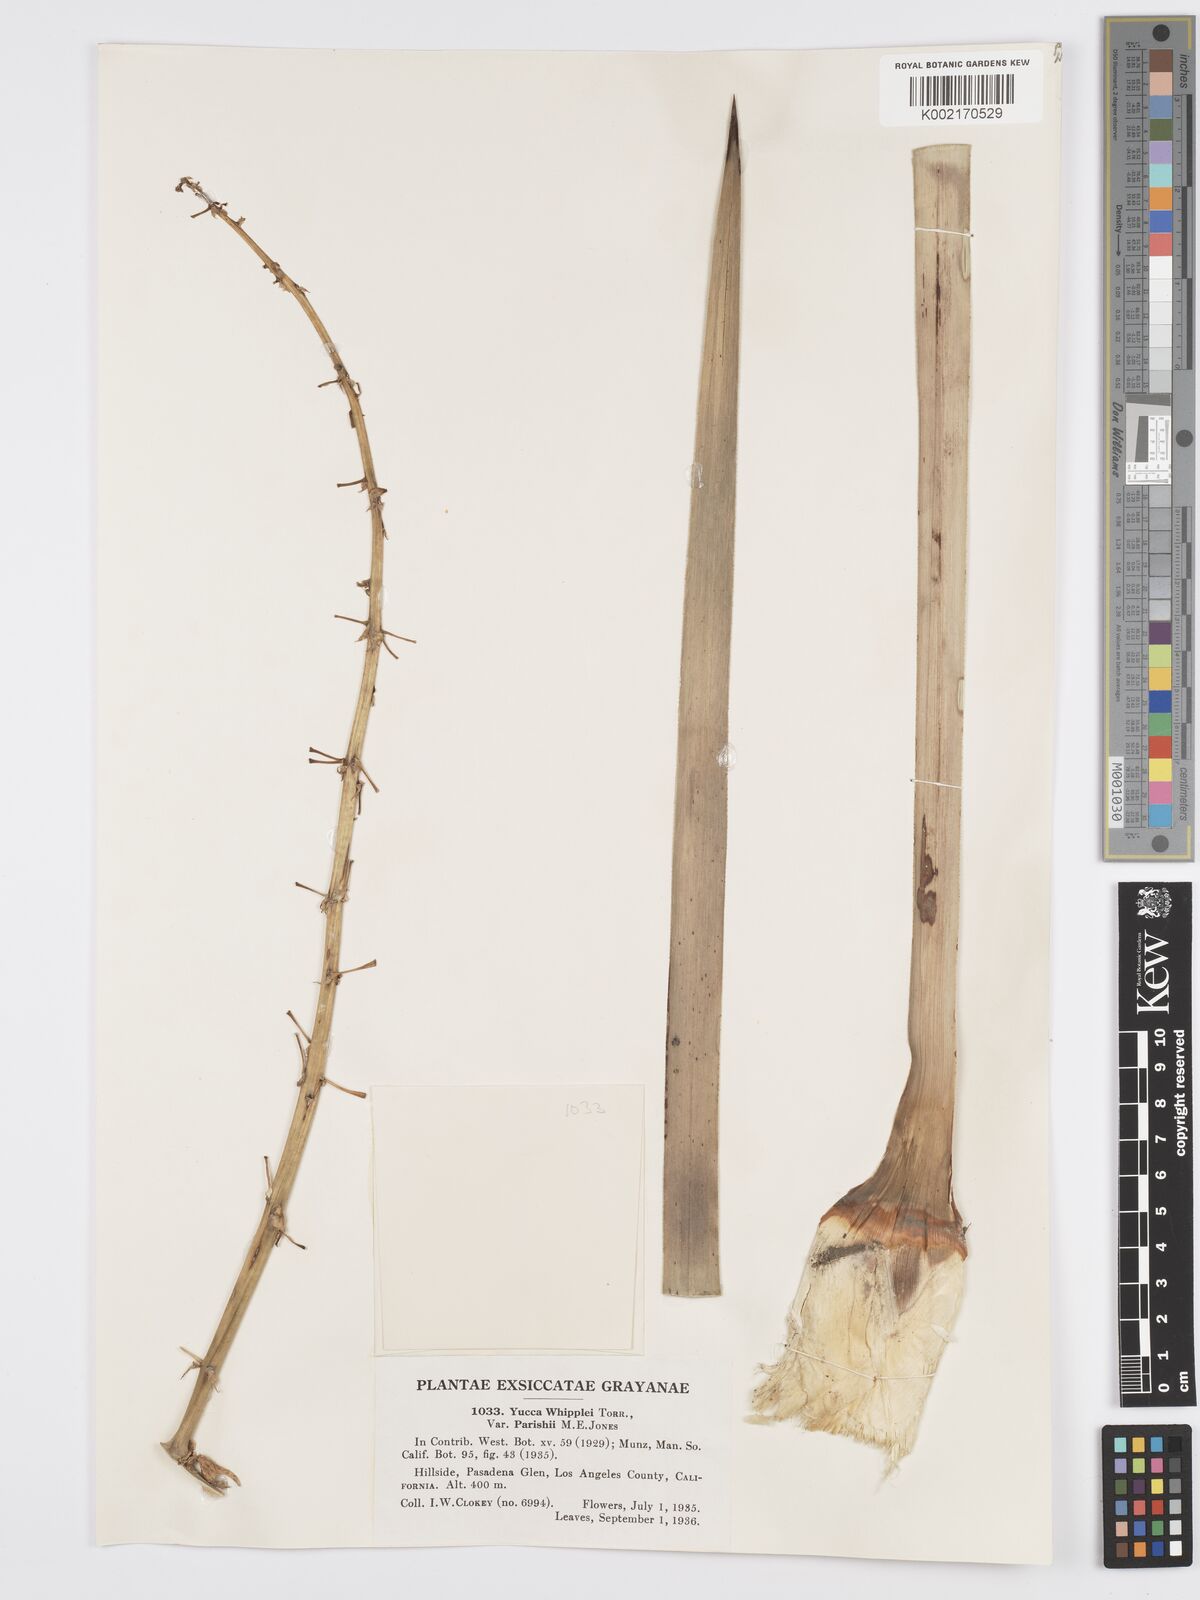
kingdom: Plantae
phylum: Tracheophyta
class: Liliopsida
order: Asparagales
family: Asparagaceae
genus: Hesperoyucca
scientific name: Hesperoyucca whipplei
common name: Our lord's-candle
